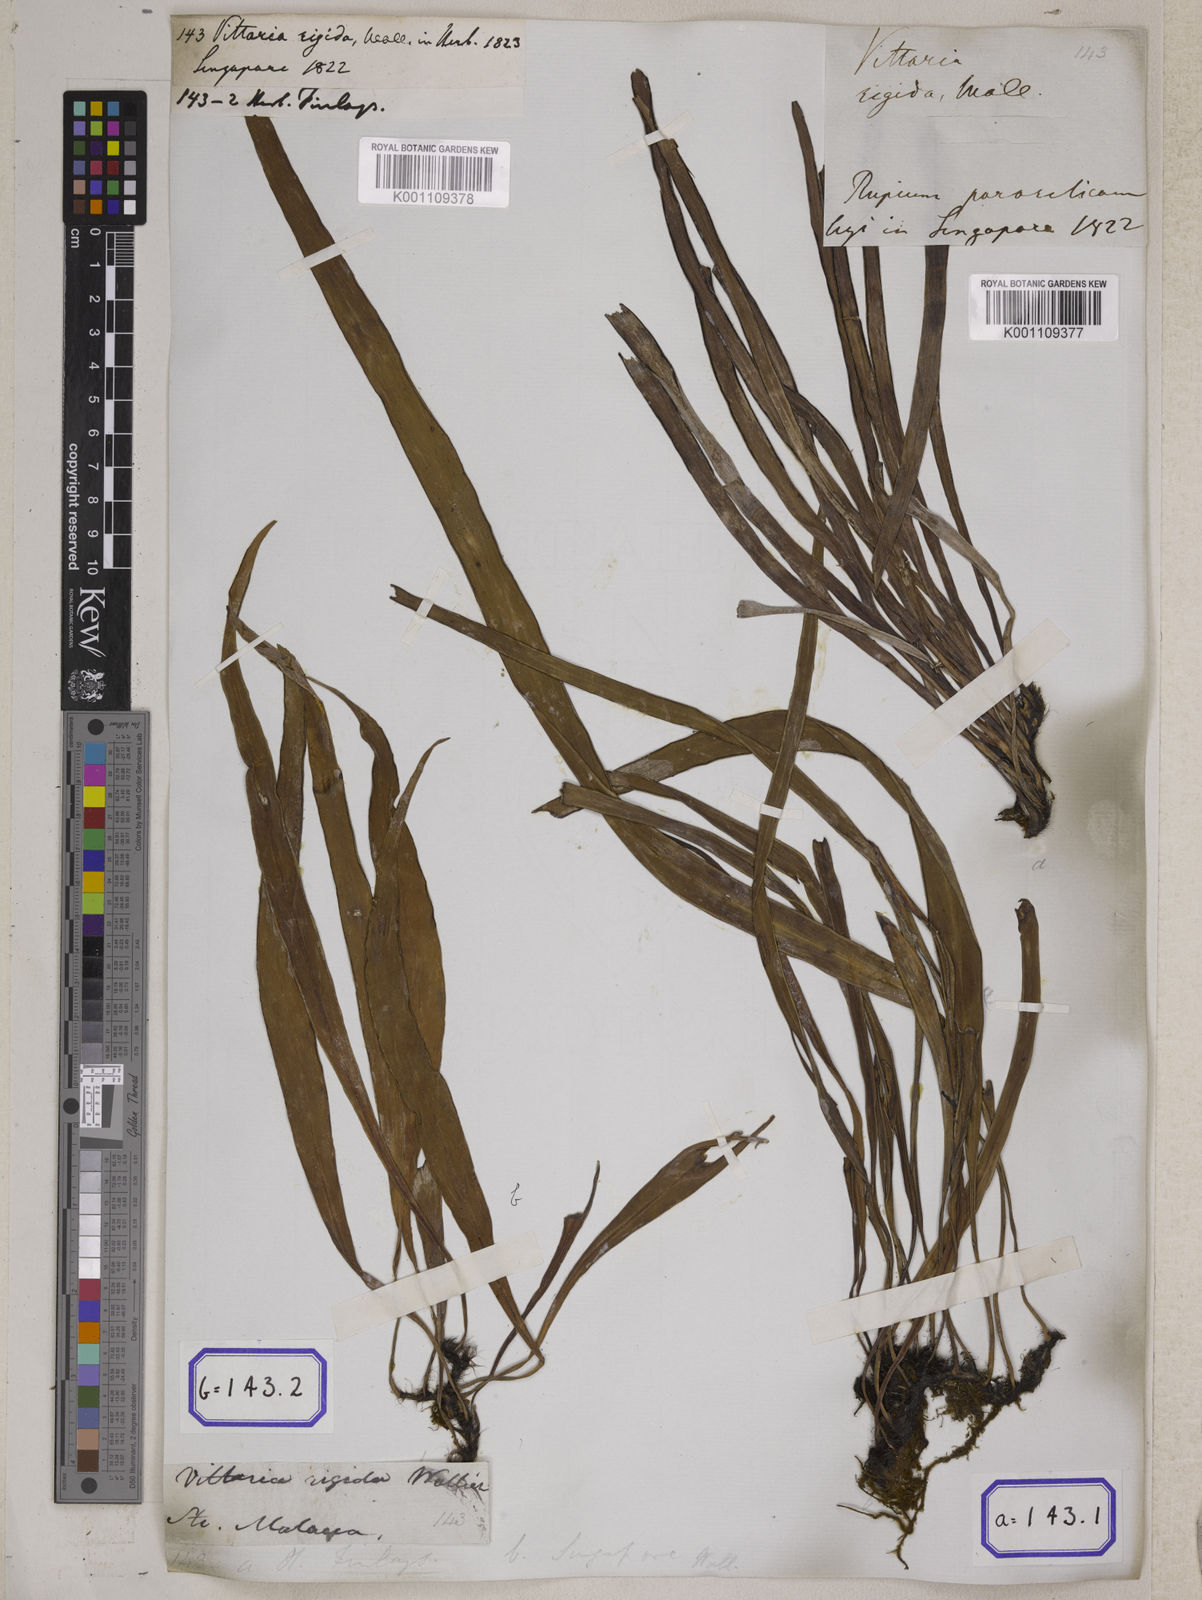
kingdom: Plantae
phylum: Tracheophyta
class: Polypodiopsida
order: Polypodiales
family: Pteridaceae
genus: Vittaria
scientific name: Vittaria
